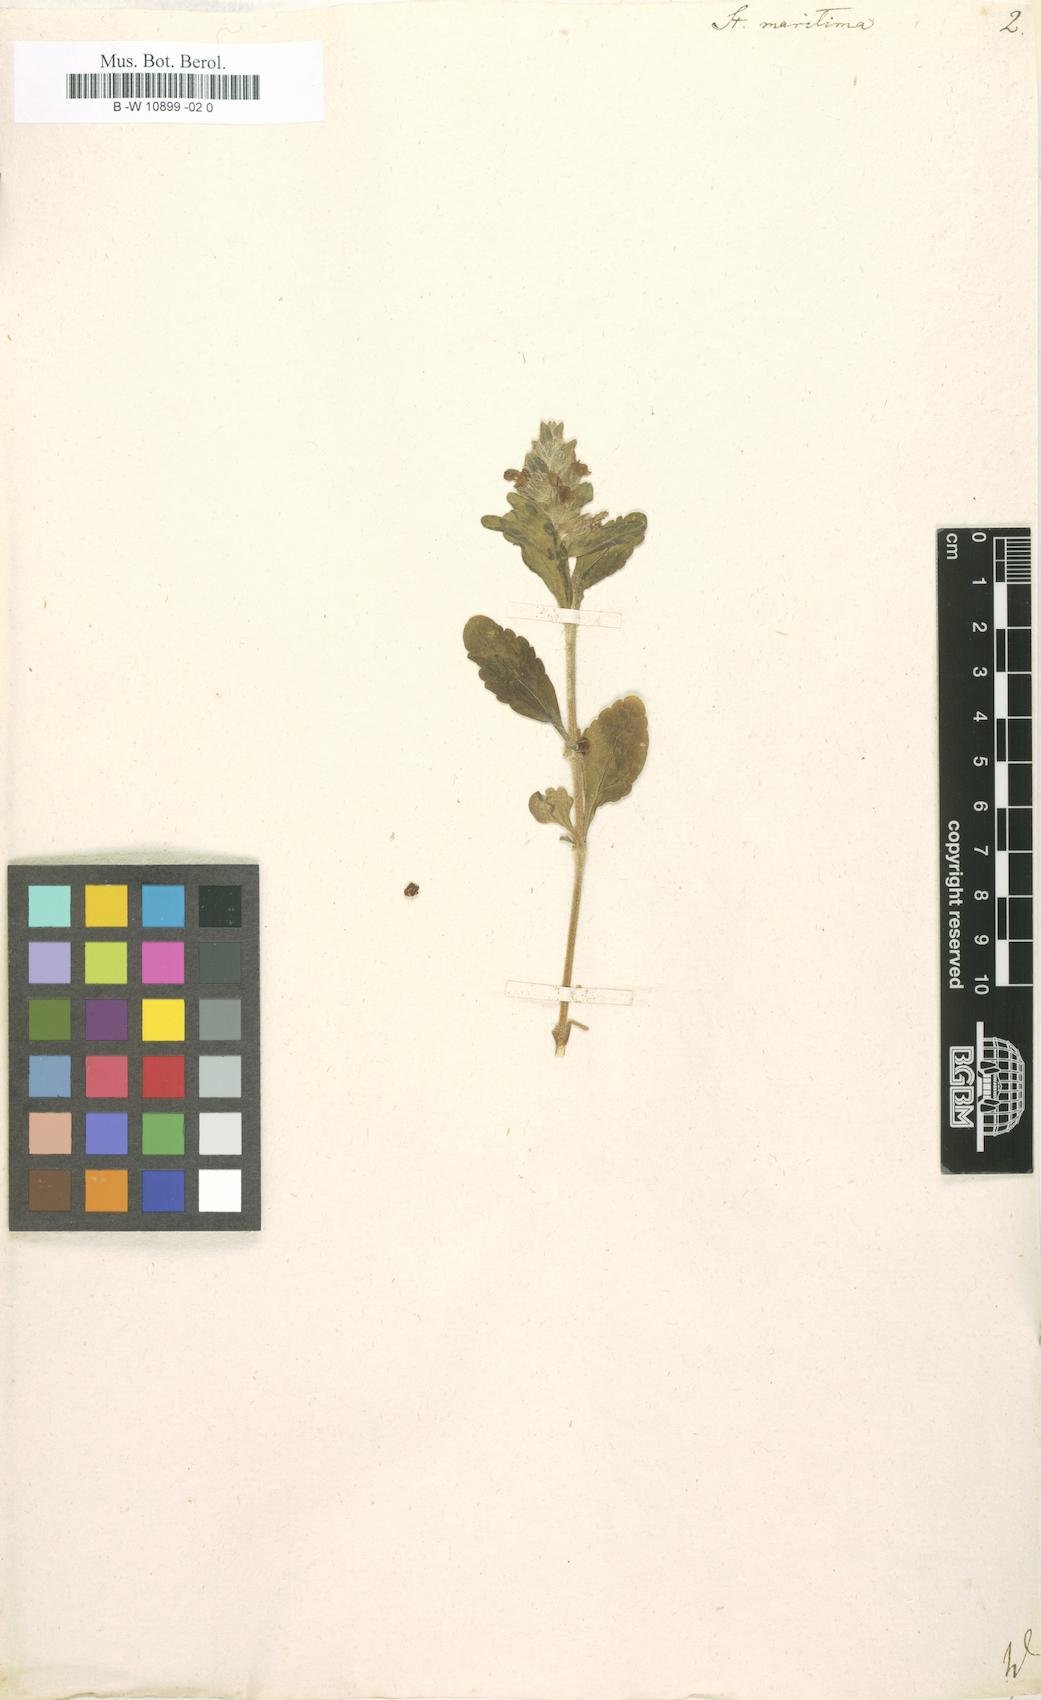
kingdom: Plantae
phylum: Tracheophyta
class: Magnoliopsida
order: Lamiales
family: Lamiaceae
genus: Stachys
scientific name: Stachys maritima
